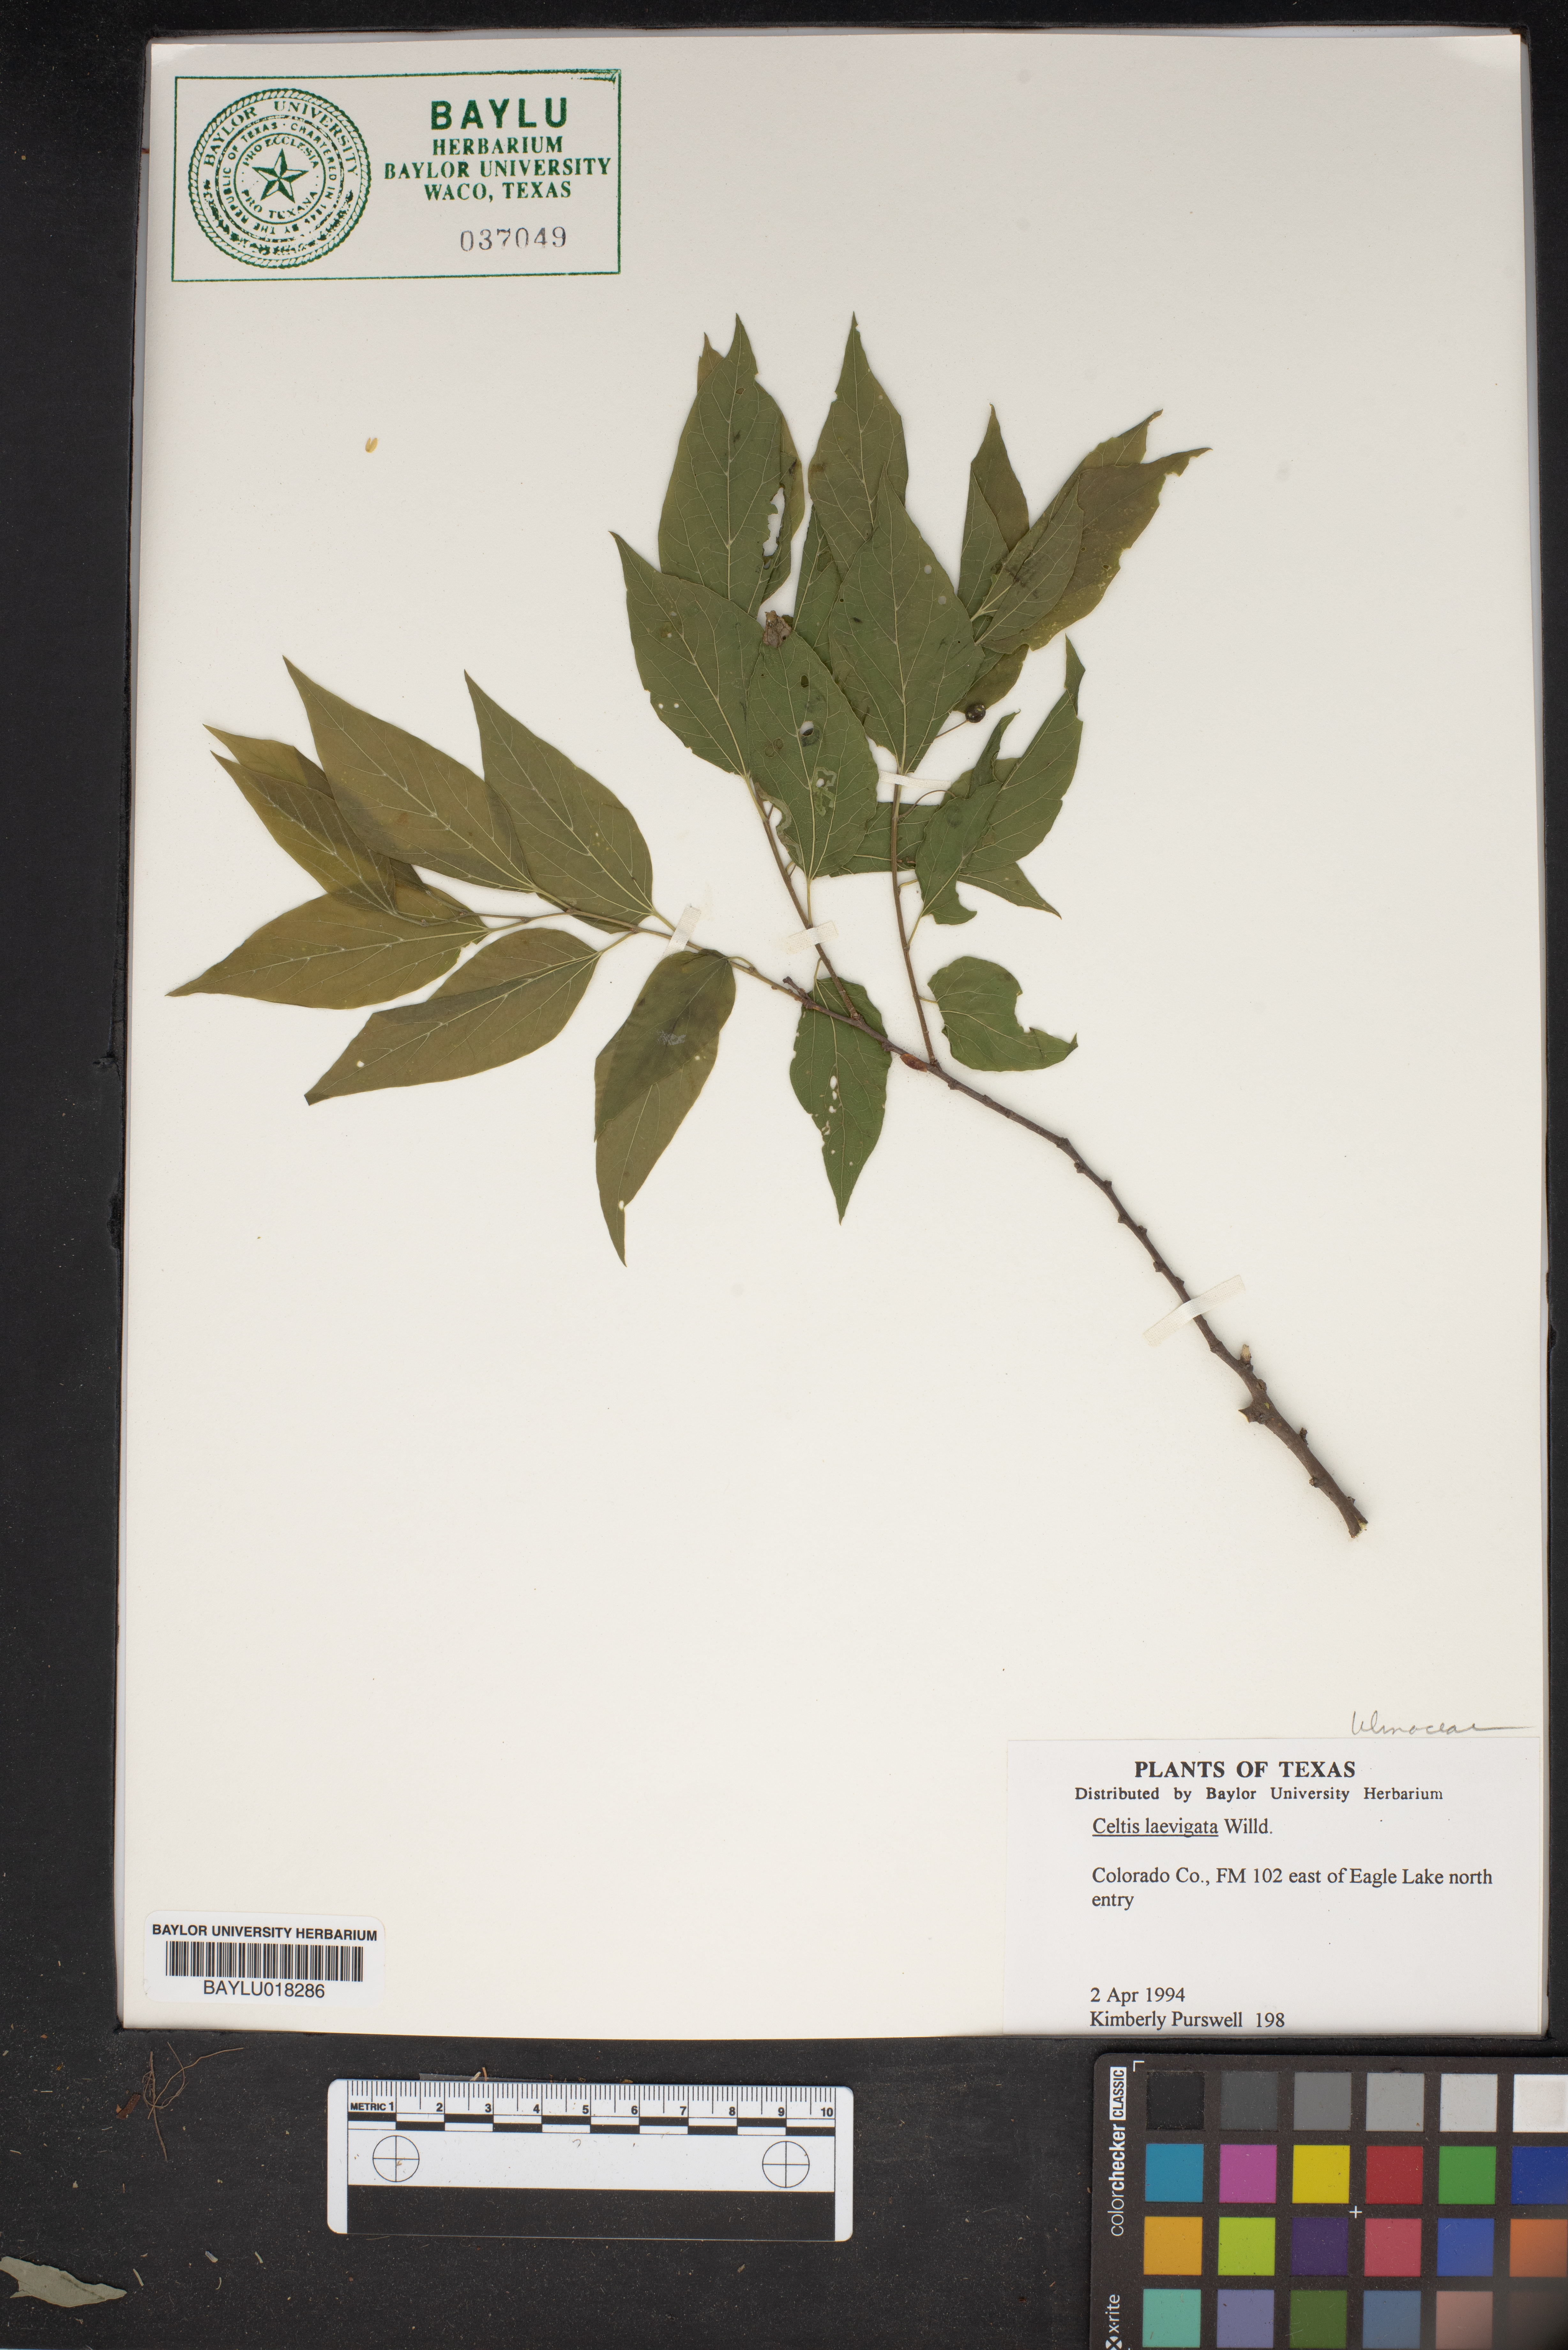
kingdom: Plantae
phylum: Tracheophyta
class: Magnoliopsida
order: Rosales
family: Cannabaceae
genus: Celtis
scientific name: Celtis laevigata
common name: Sugarberry
